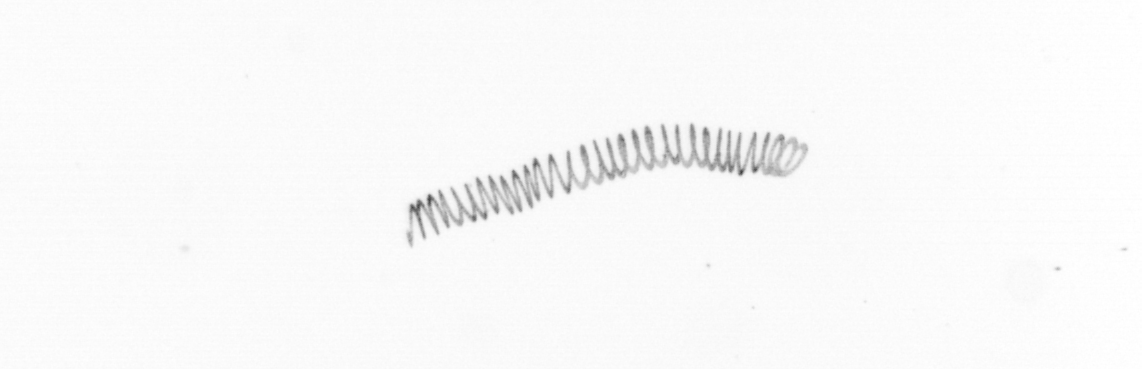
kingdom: Chromista
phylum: Ochrophyta
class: Bacillariophyceae
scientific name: Bacillariophyceae
